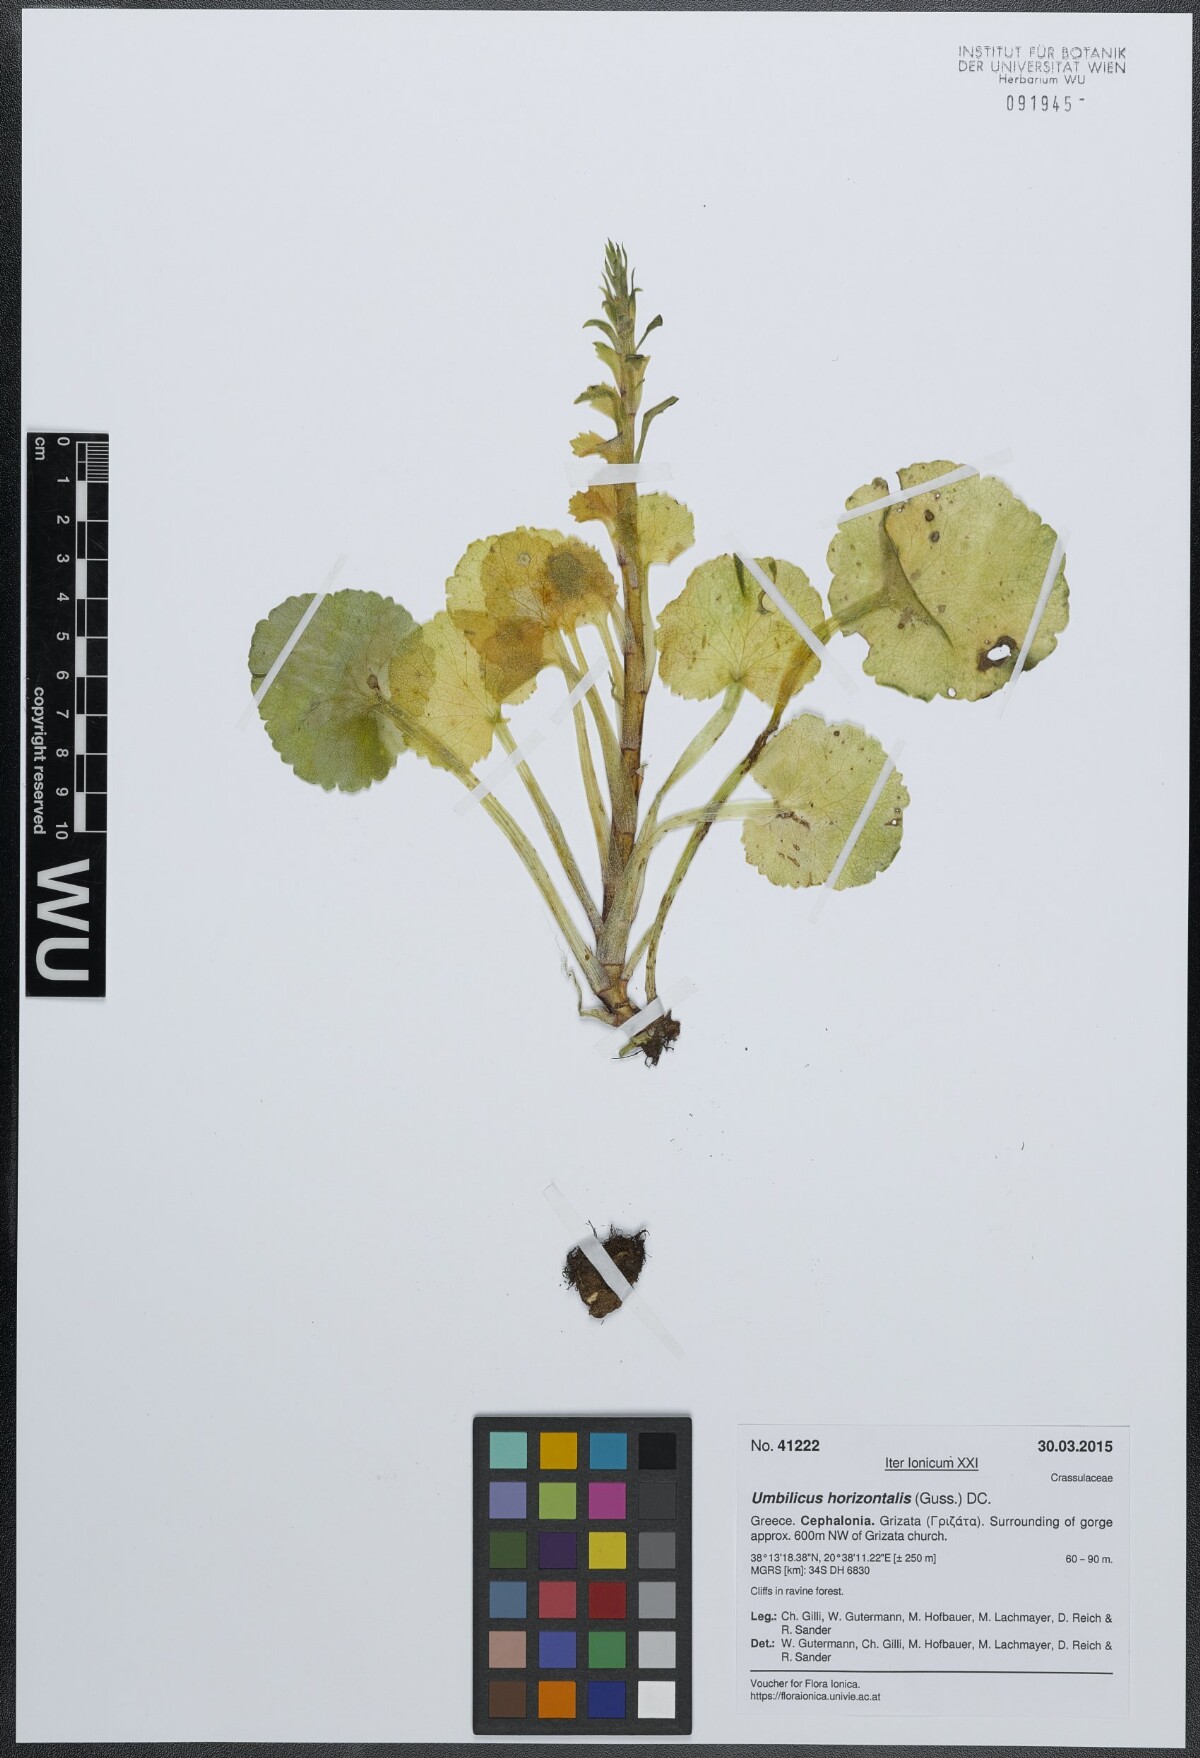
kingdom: Plantae
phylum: Tracheophyta
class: Magnoliopsida
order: Saxifragales
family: Crassulaceae
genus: Umbilicus
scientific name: Umbilicus horizontalis
